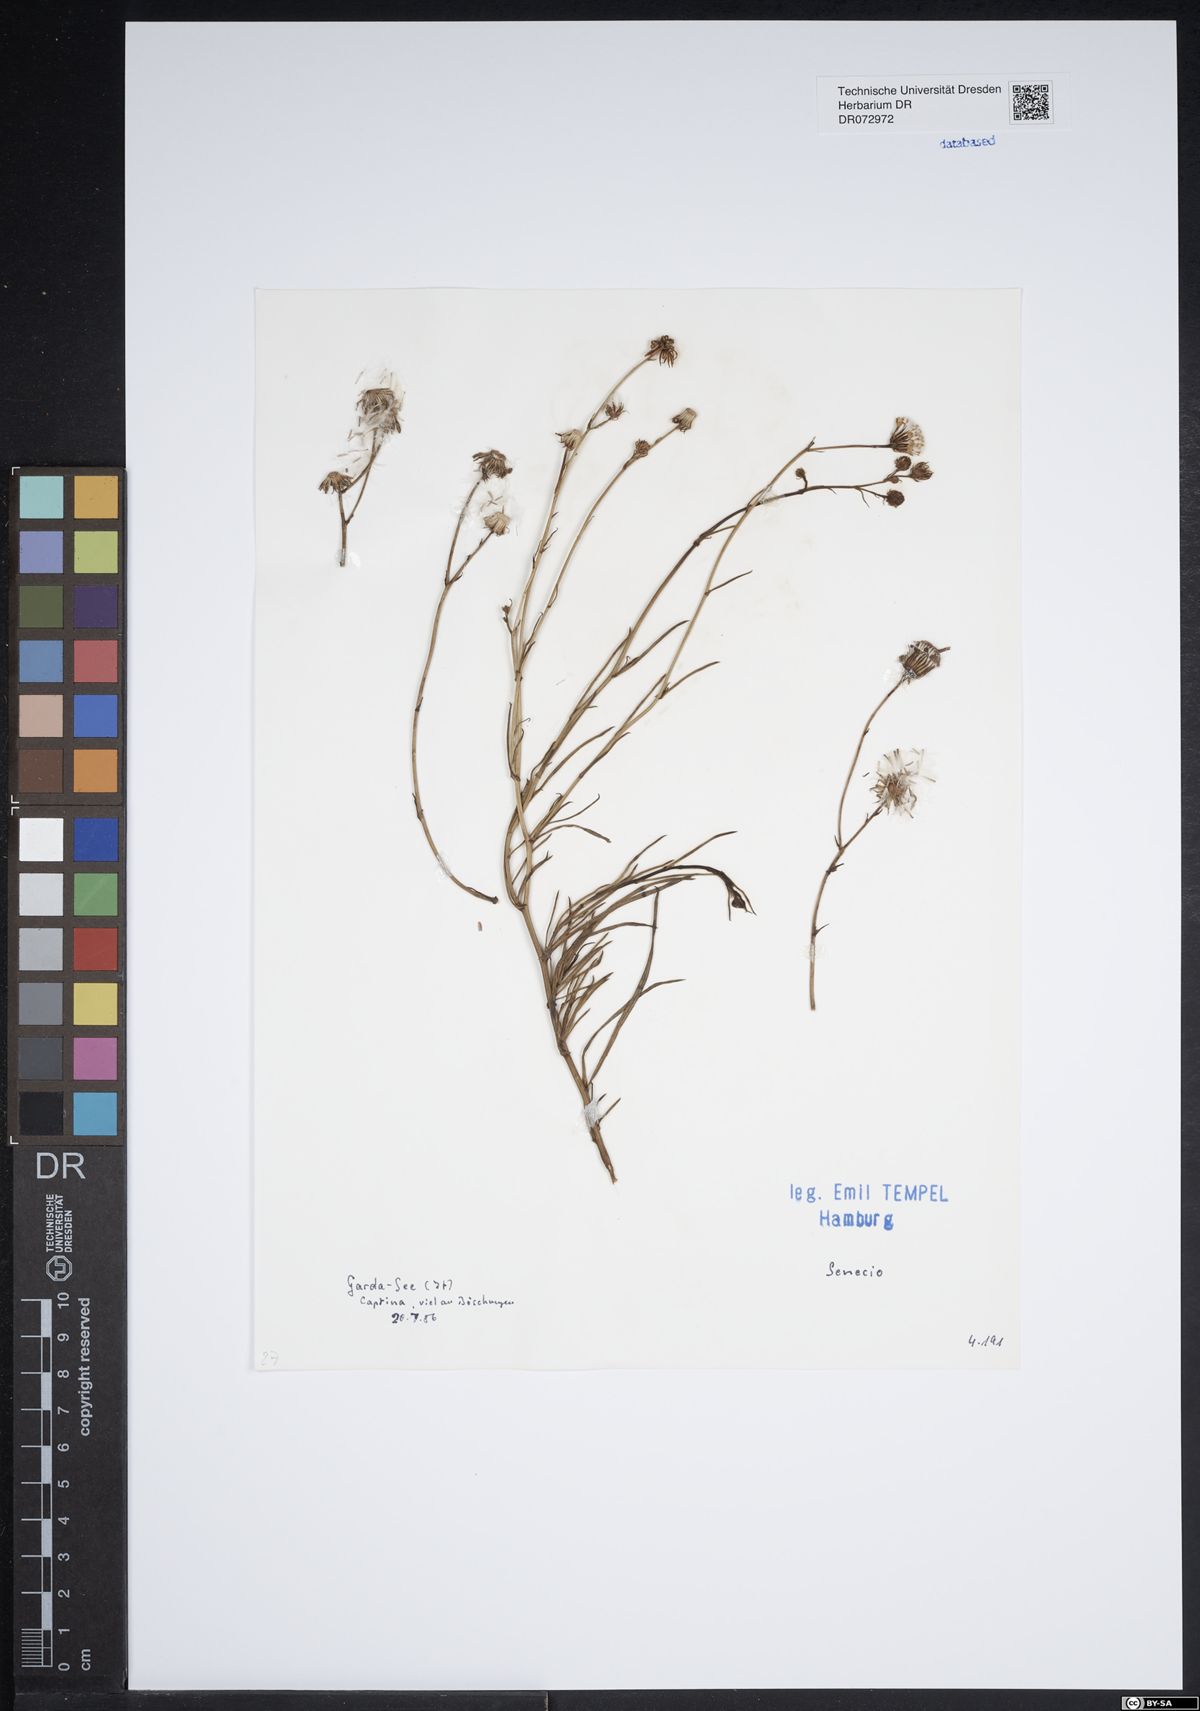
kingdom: Plantae
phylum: Tracheophyta
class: Magnoliopsida
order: Asterales
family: Asteraceae
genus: Senecio
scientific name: Senecio
